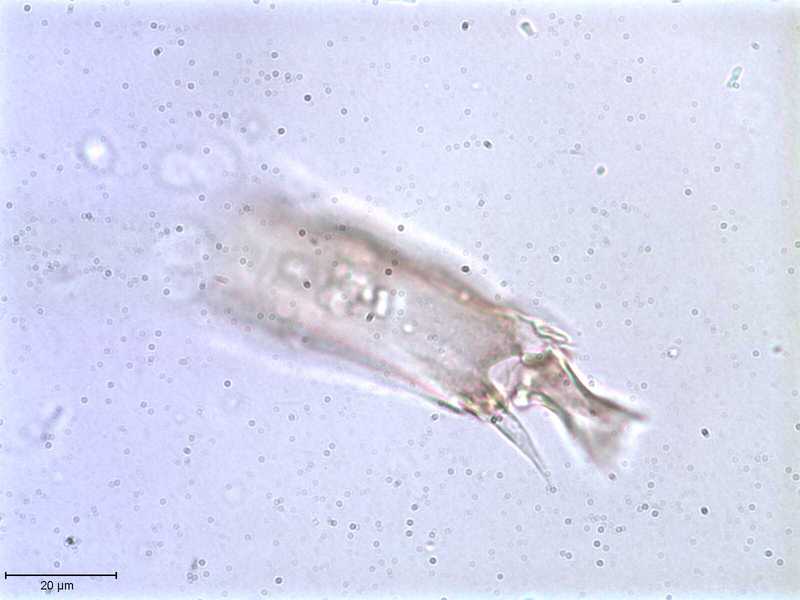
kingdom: Animalia
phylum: Arthropoda
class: Arachnida
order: Mesostigmata
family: Halarachnidae
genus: Orthohalarachne
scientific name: Orthohalarachne letalis
